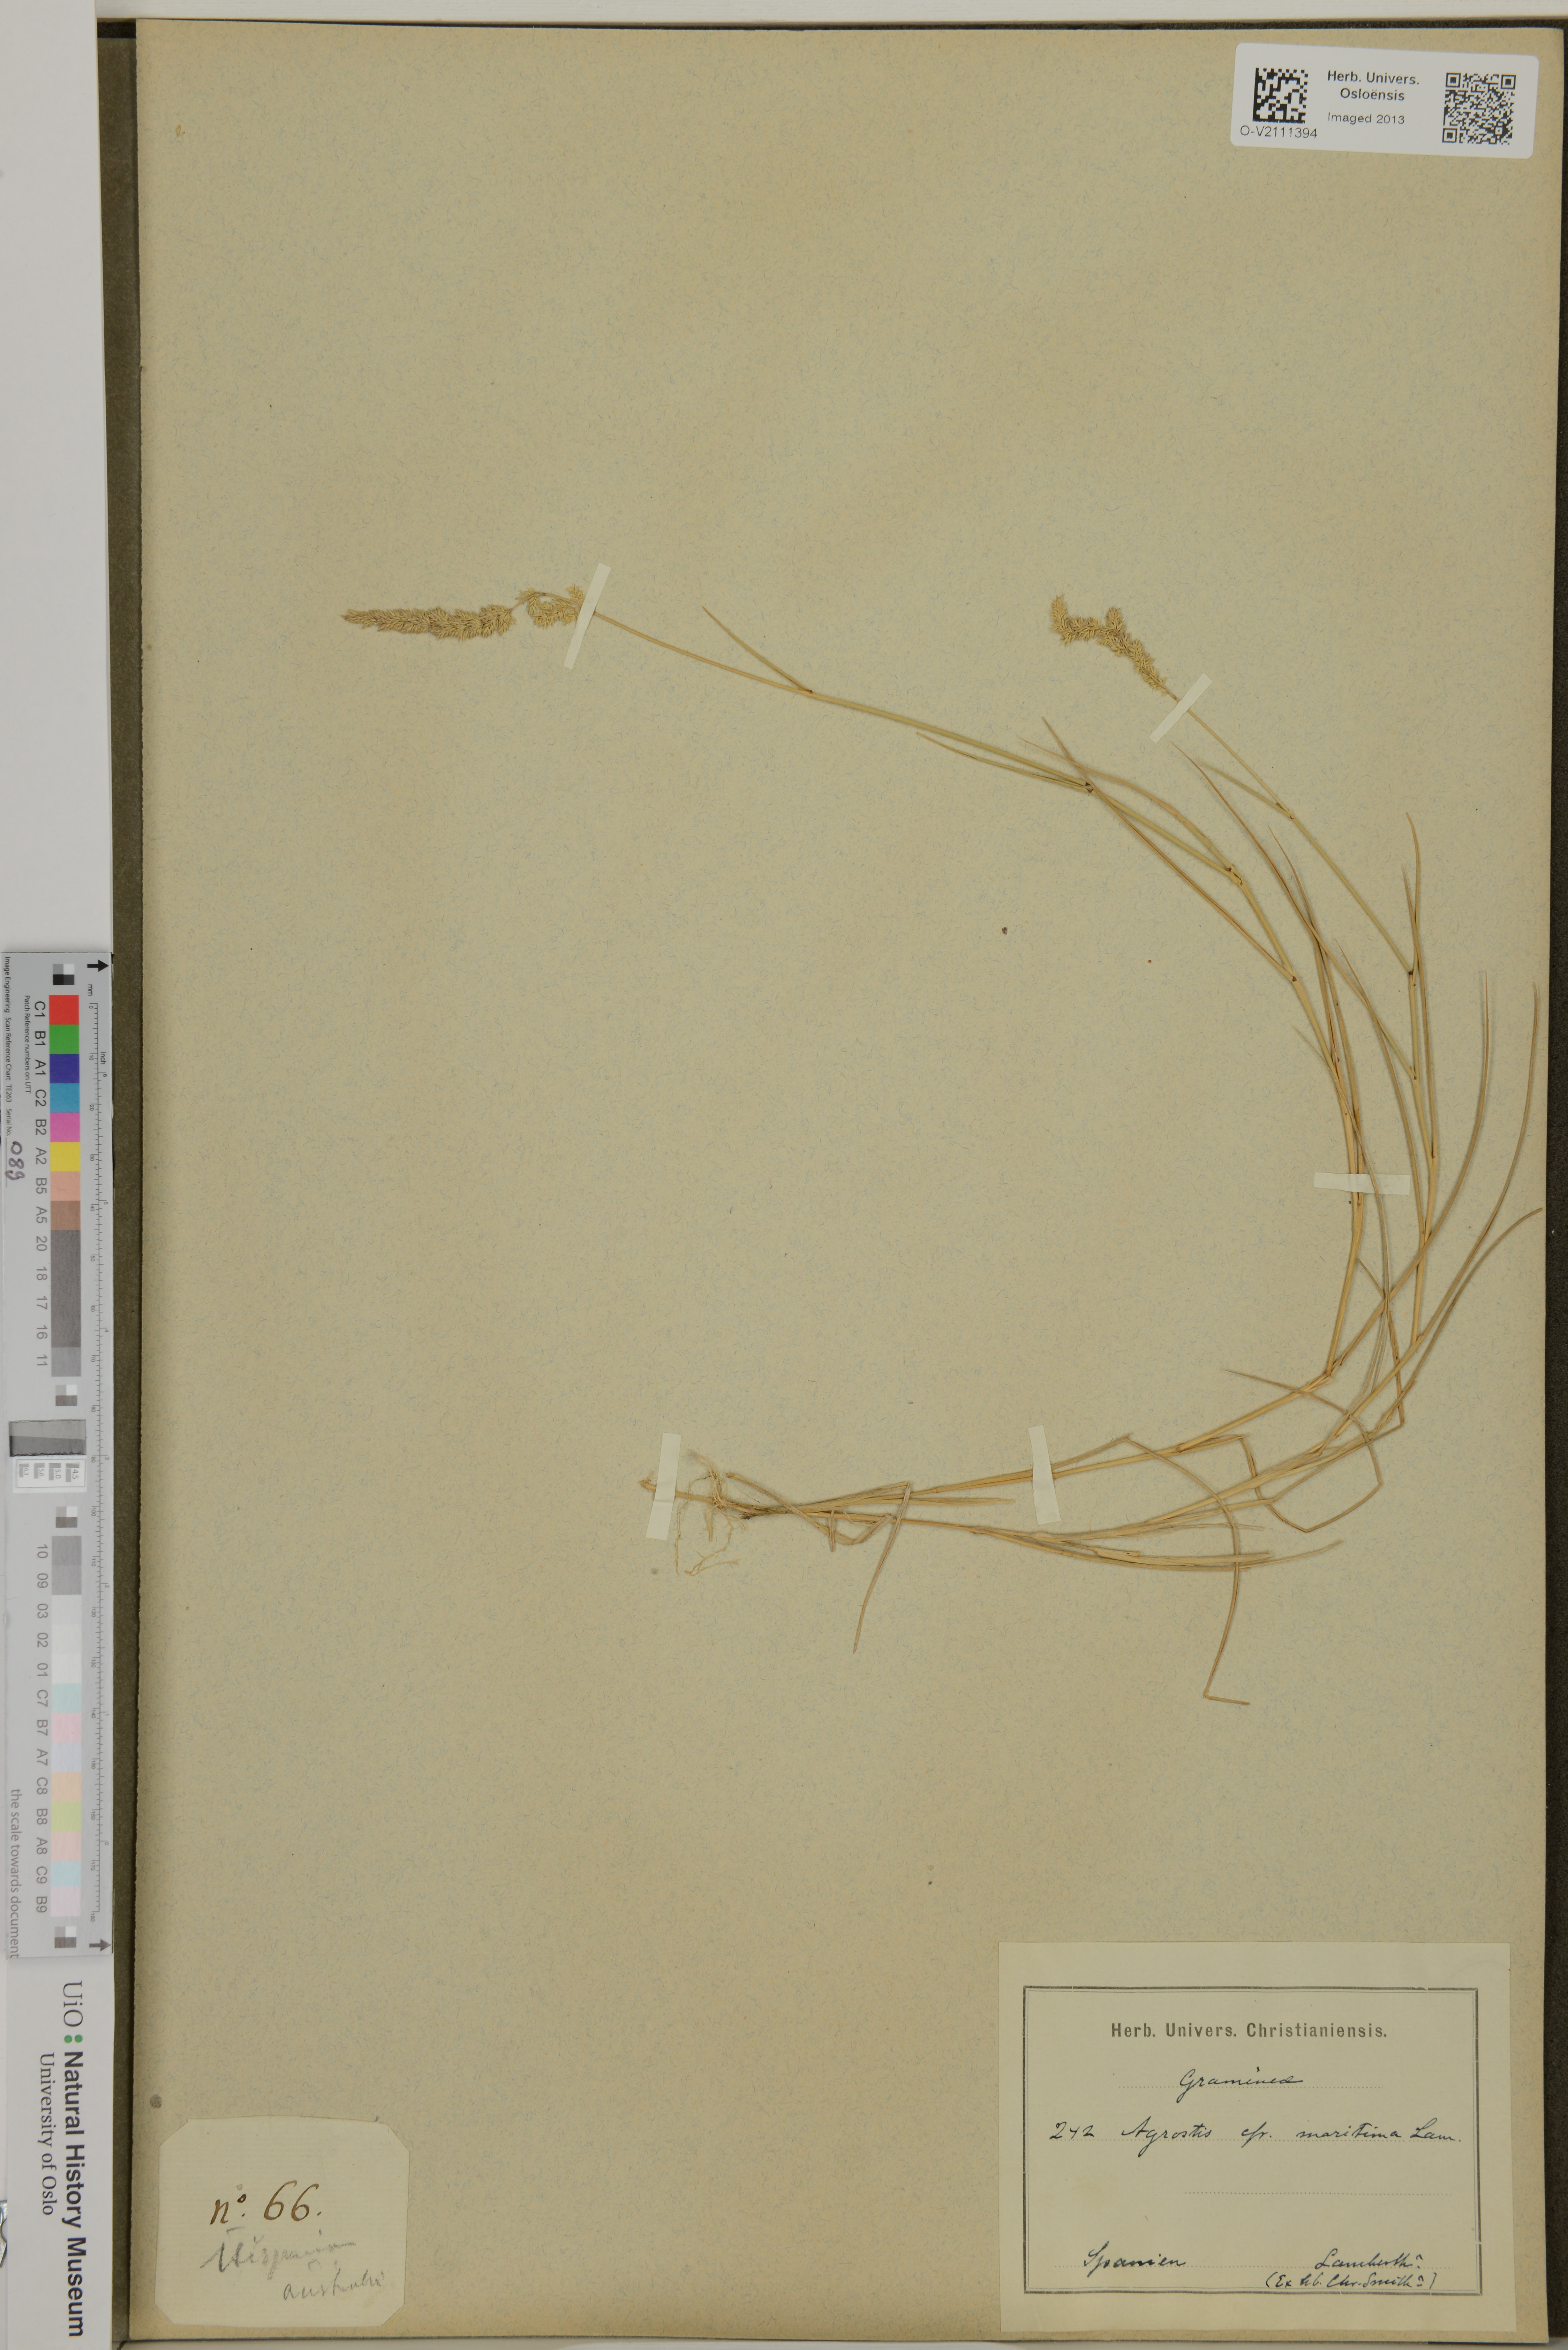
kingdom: Plantae
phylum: Tracheophyta
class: Liliopsida
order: Poales
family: Poaceae
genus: Agrostis
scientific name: Agrostis
